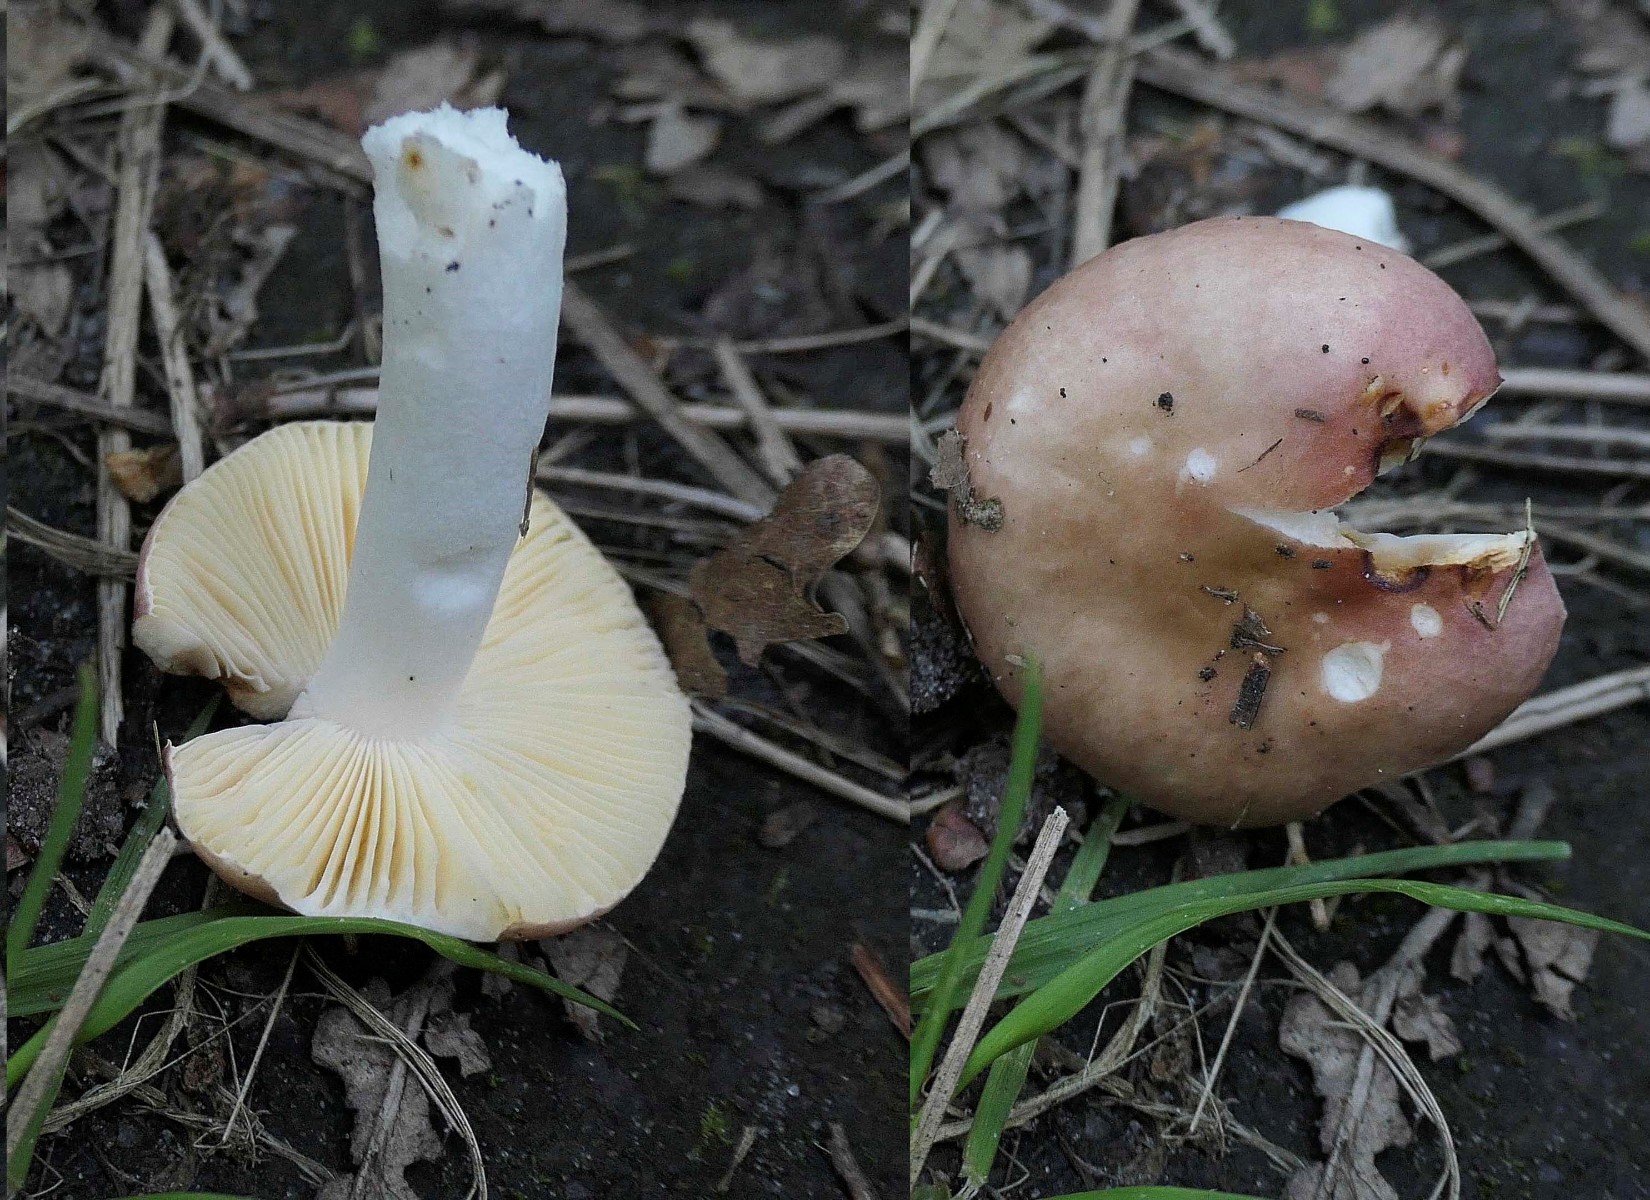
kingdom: Fungi
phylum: Basidiomycota
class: Agaricomycetes
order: Russulales
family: Russulaceae
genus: Russula
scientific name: Russula odorata
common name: duft-skørhat
